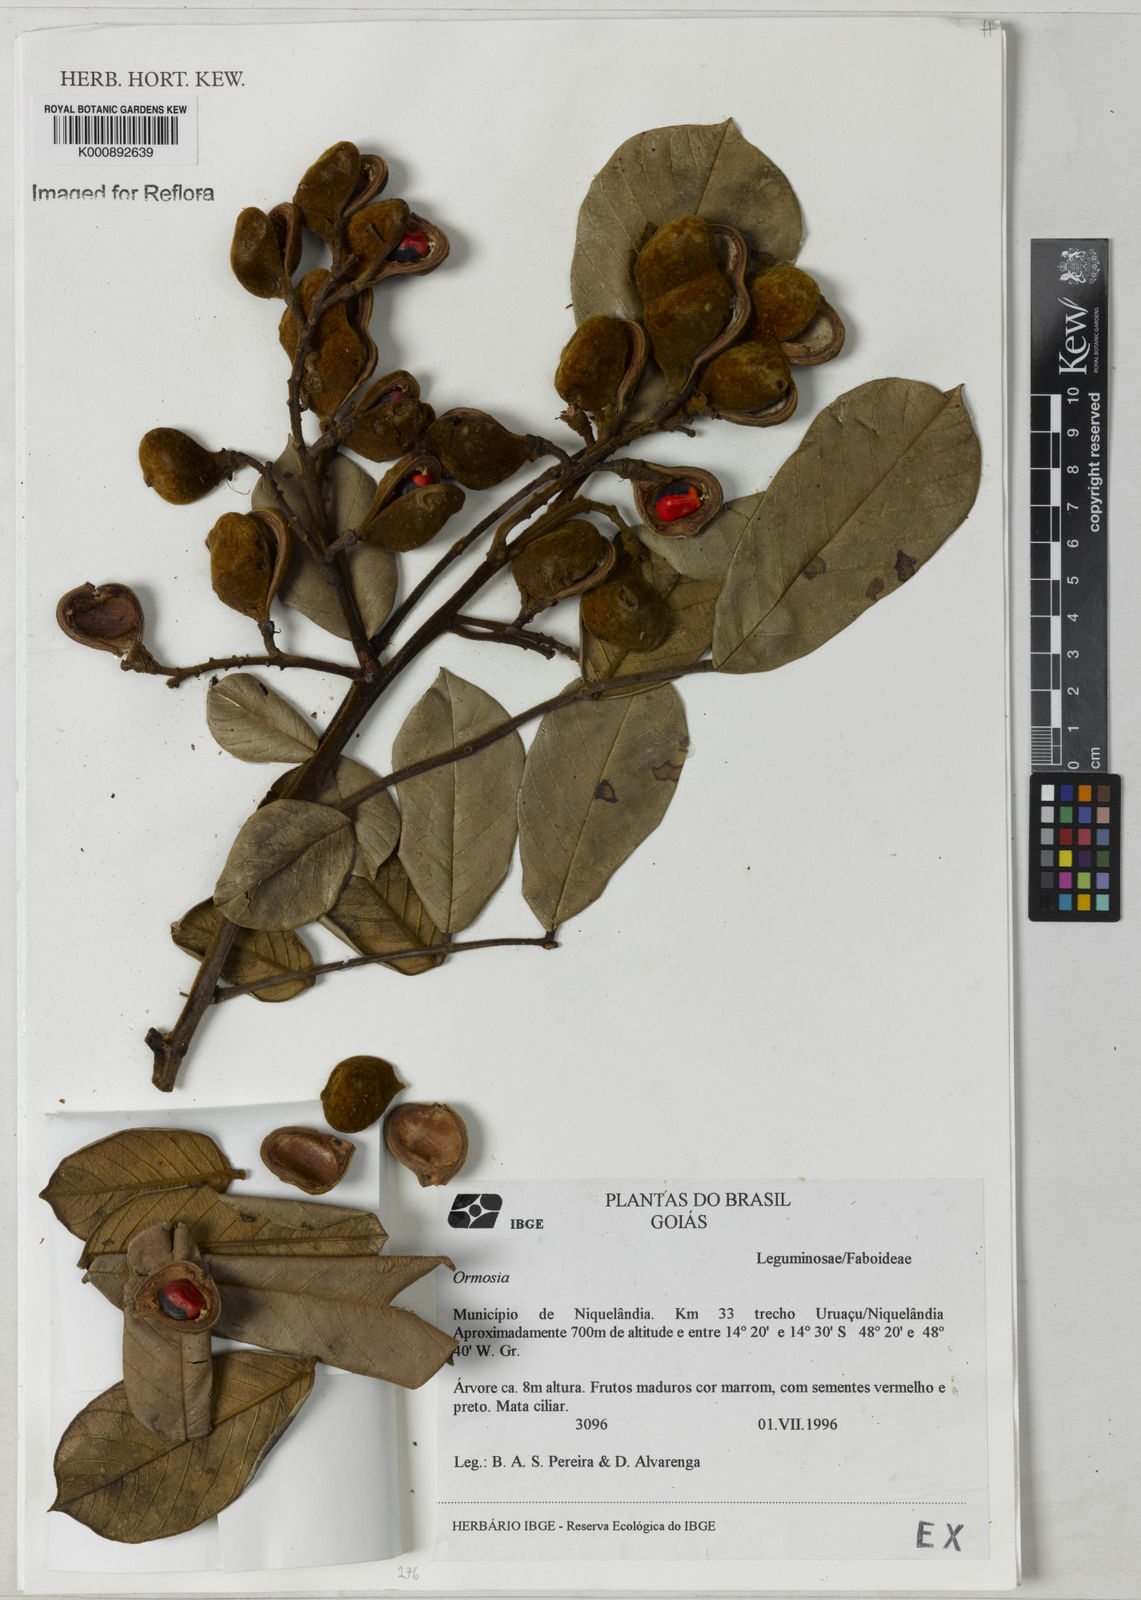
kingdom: Plantae
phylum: Tracheophyta
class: Magnoliopsida
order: Fabales
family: Fabaceae
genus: Ormosia
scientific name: Ormosia
